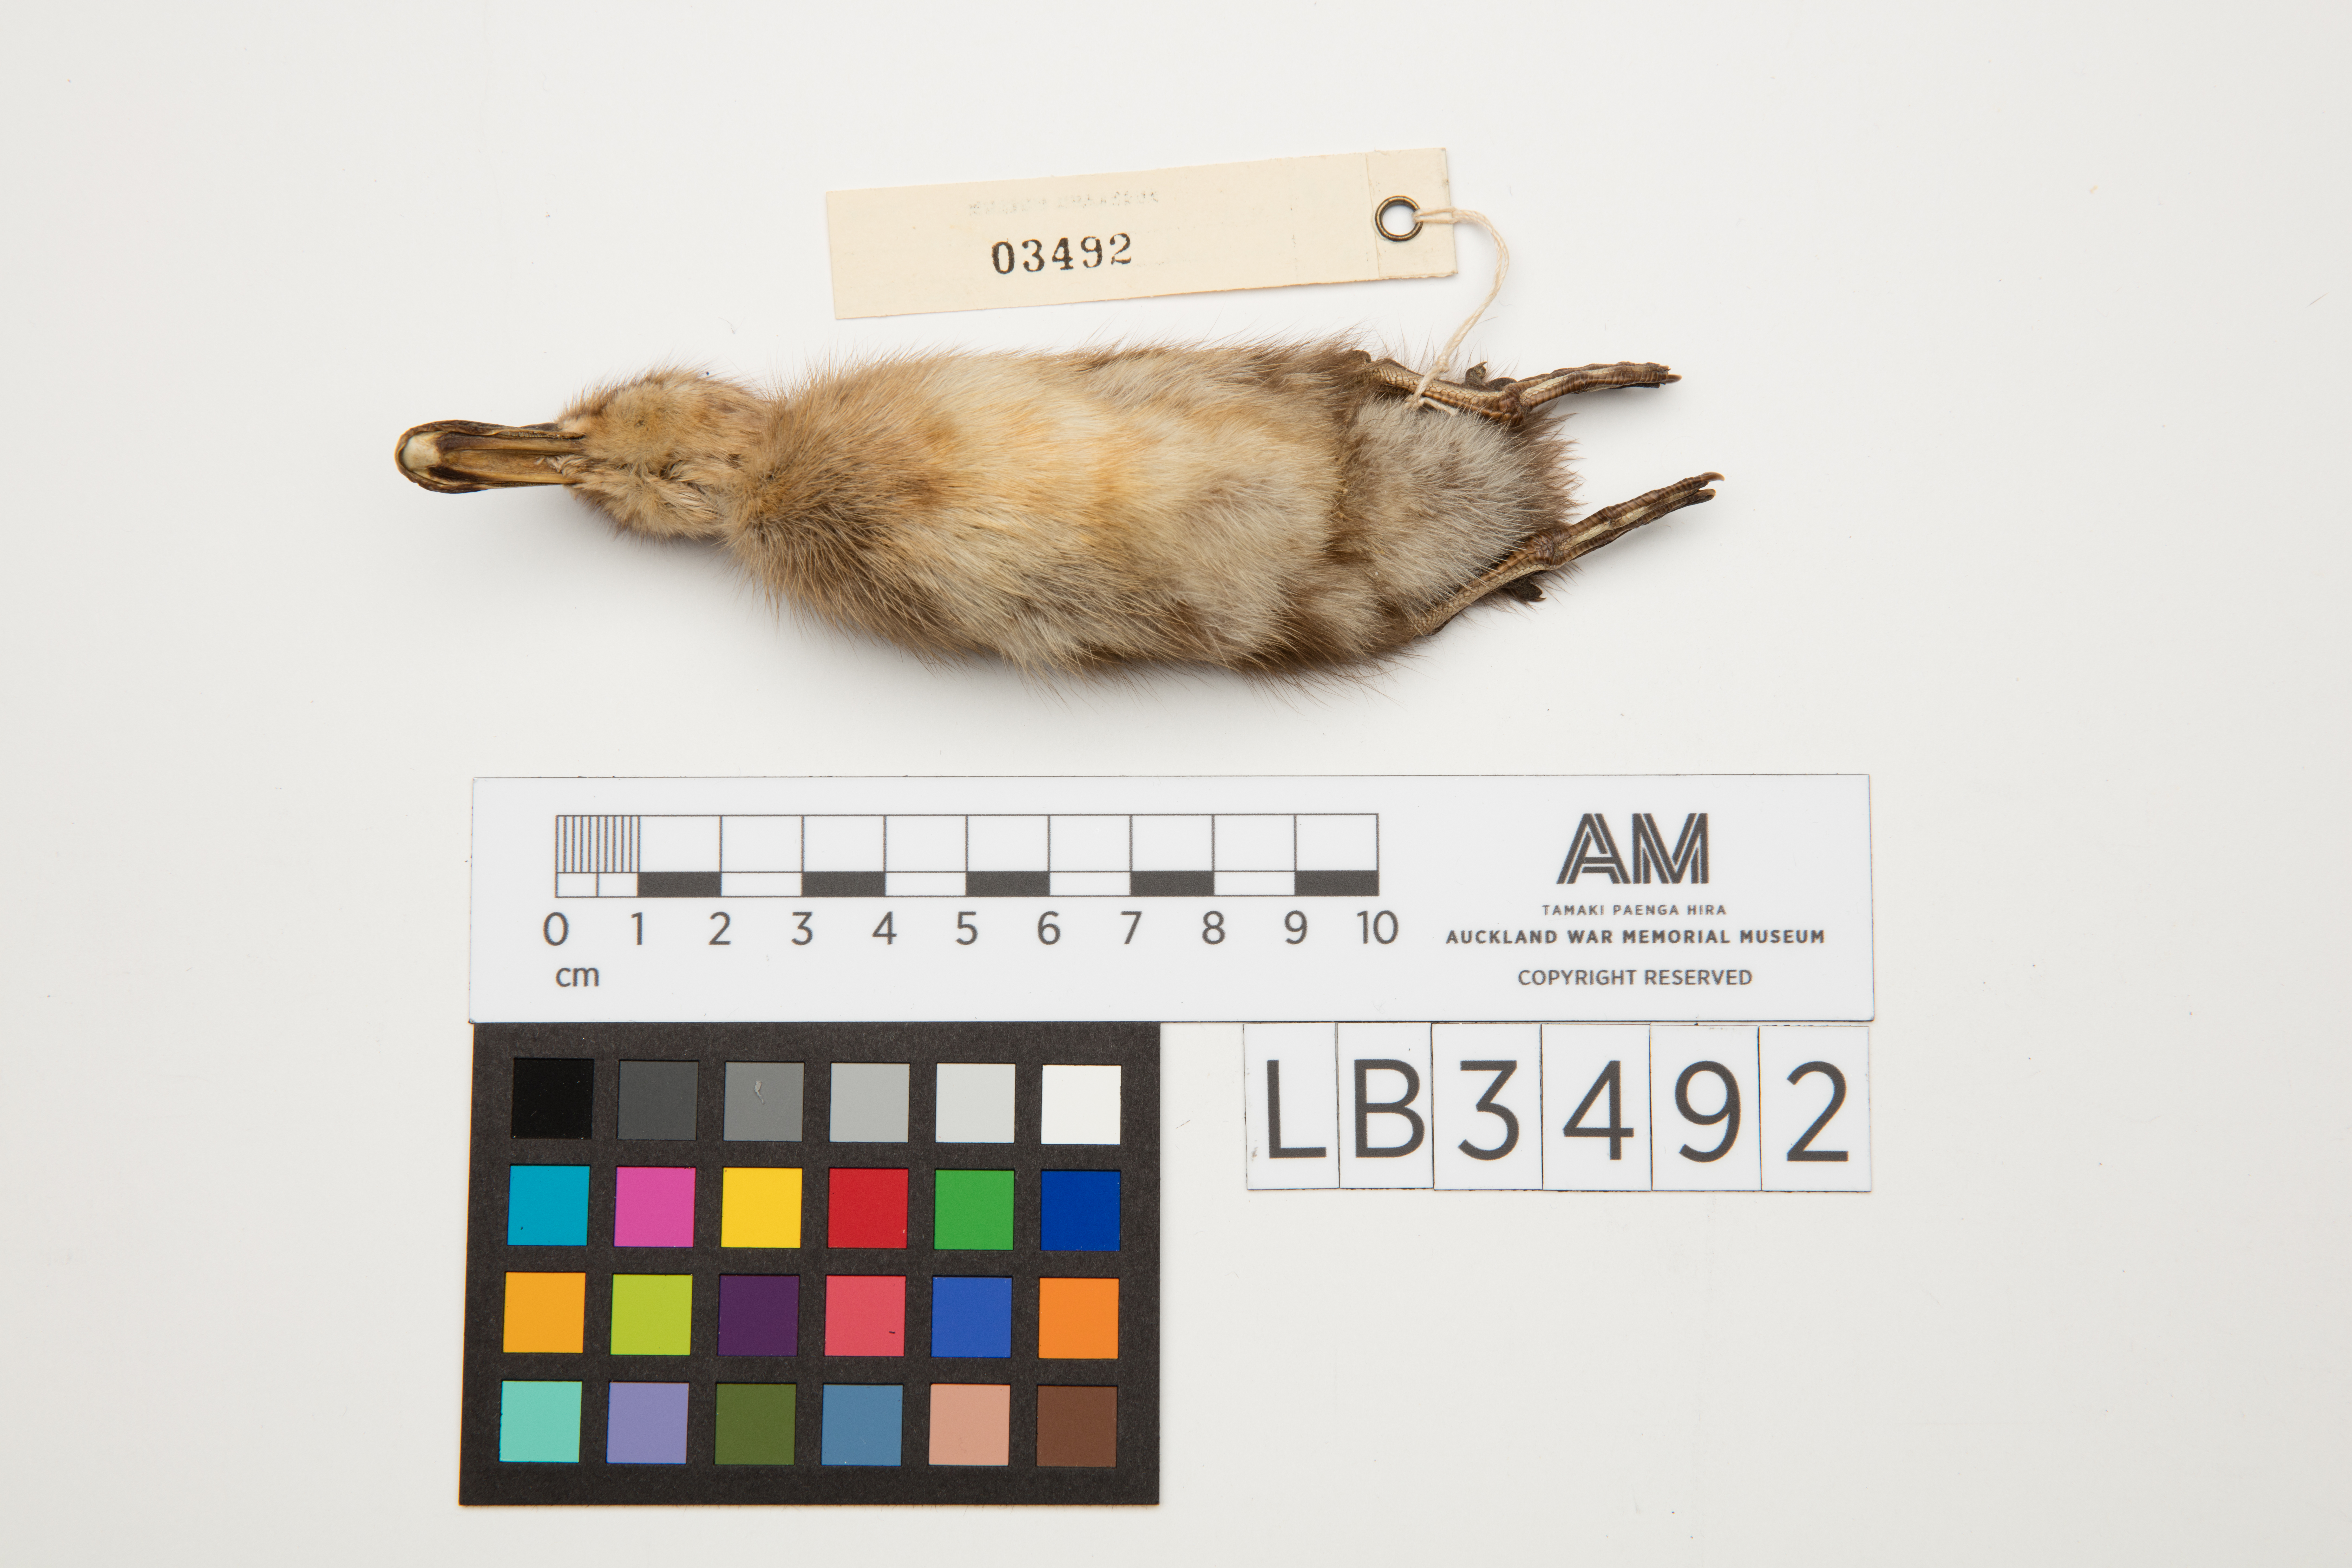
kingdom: Animalia
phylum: Chordata
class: Aves
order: Anseriformes
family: Anatidae
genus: Spatula
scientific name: Spatula rhynchotis
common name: Australian shoveler
